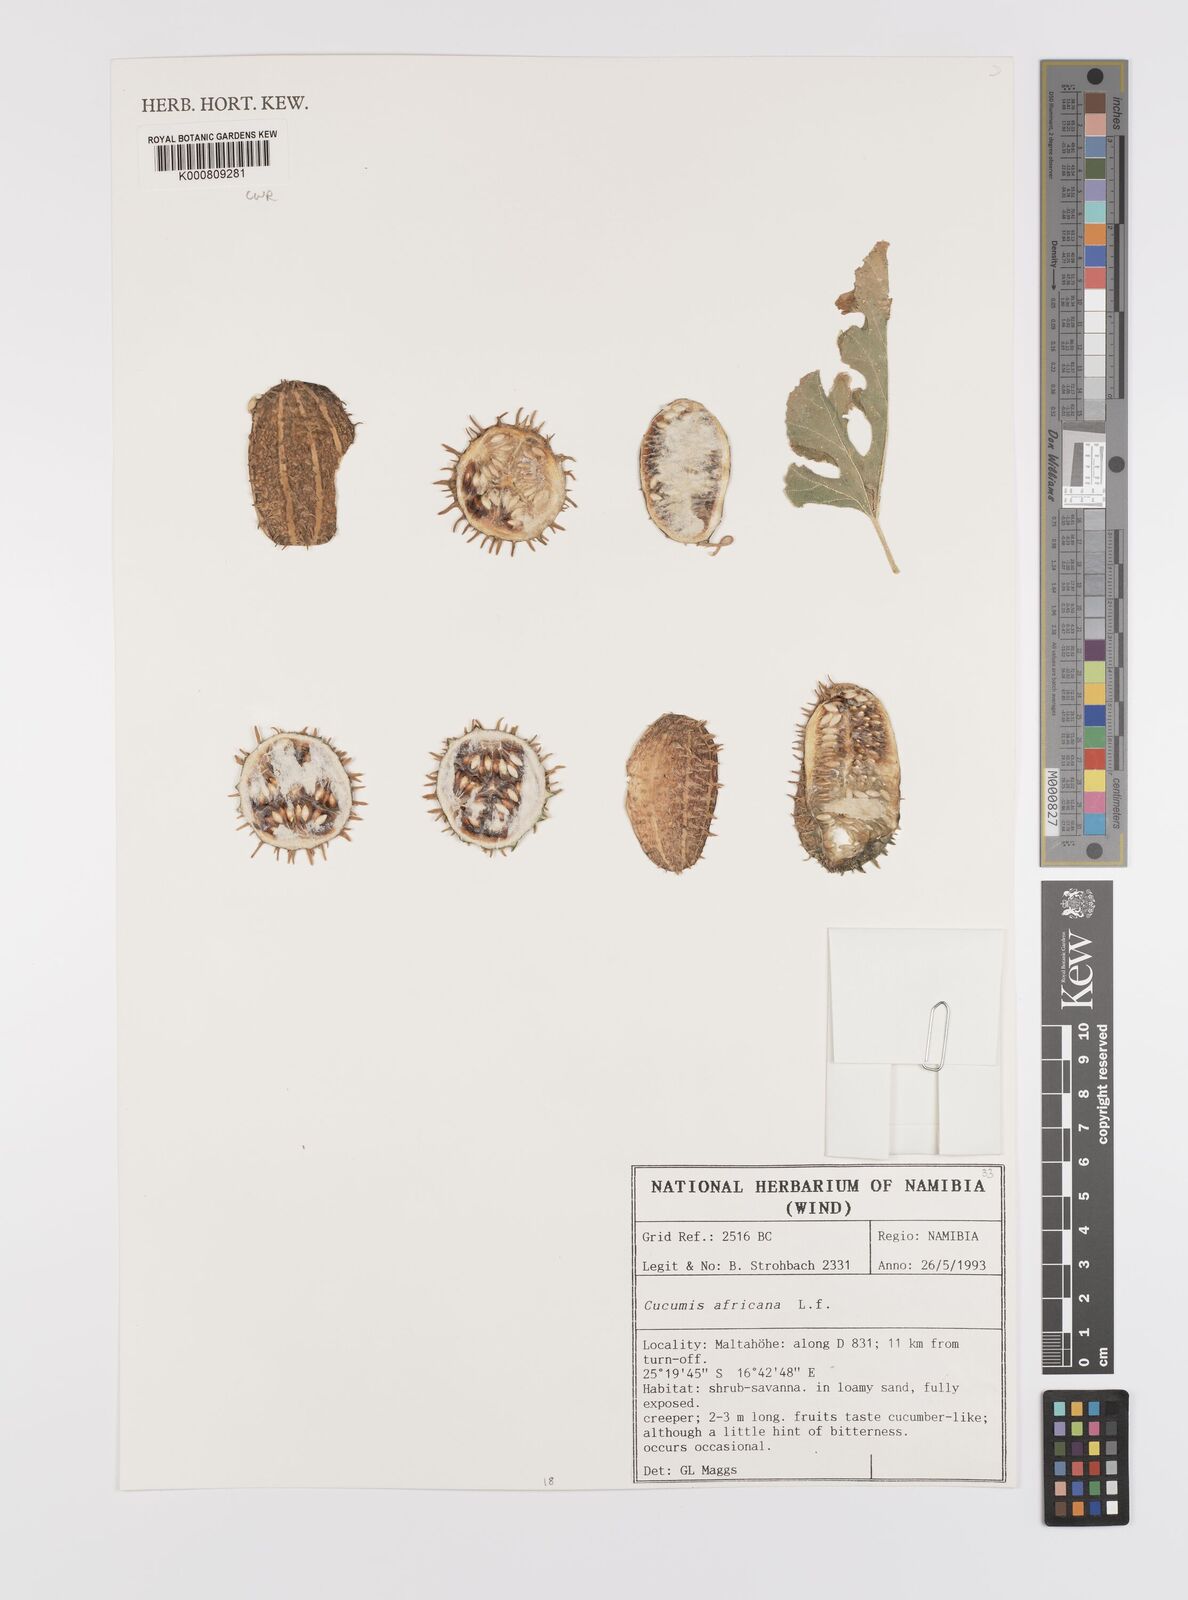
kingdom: Plantae
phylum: Tracheophyta
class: Magnoliopsida
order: Cucurbitales
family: Cucurbitaceae
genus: Cucumis
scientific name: Cucumis africanus
